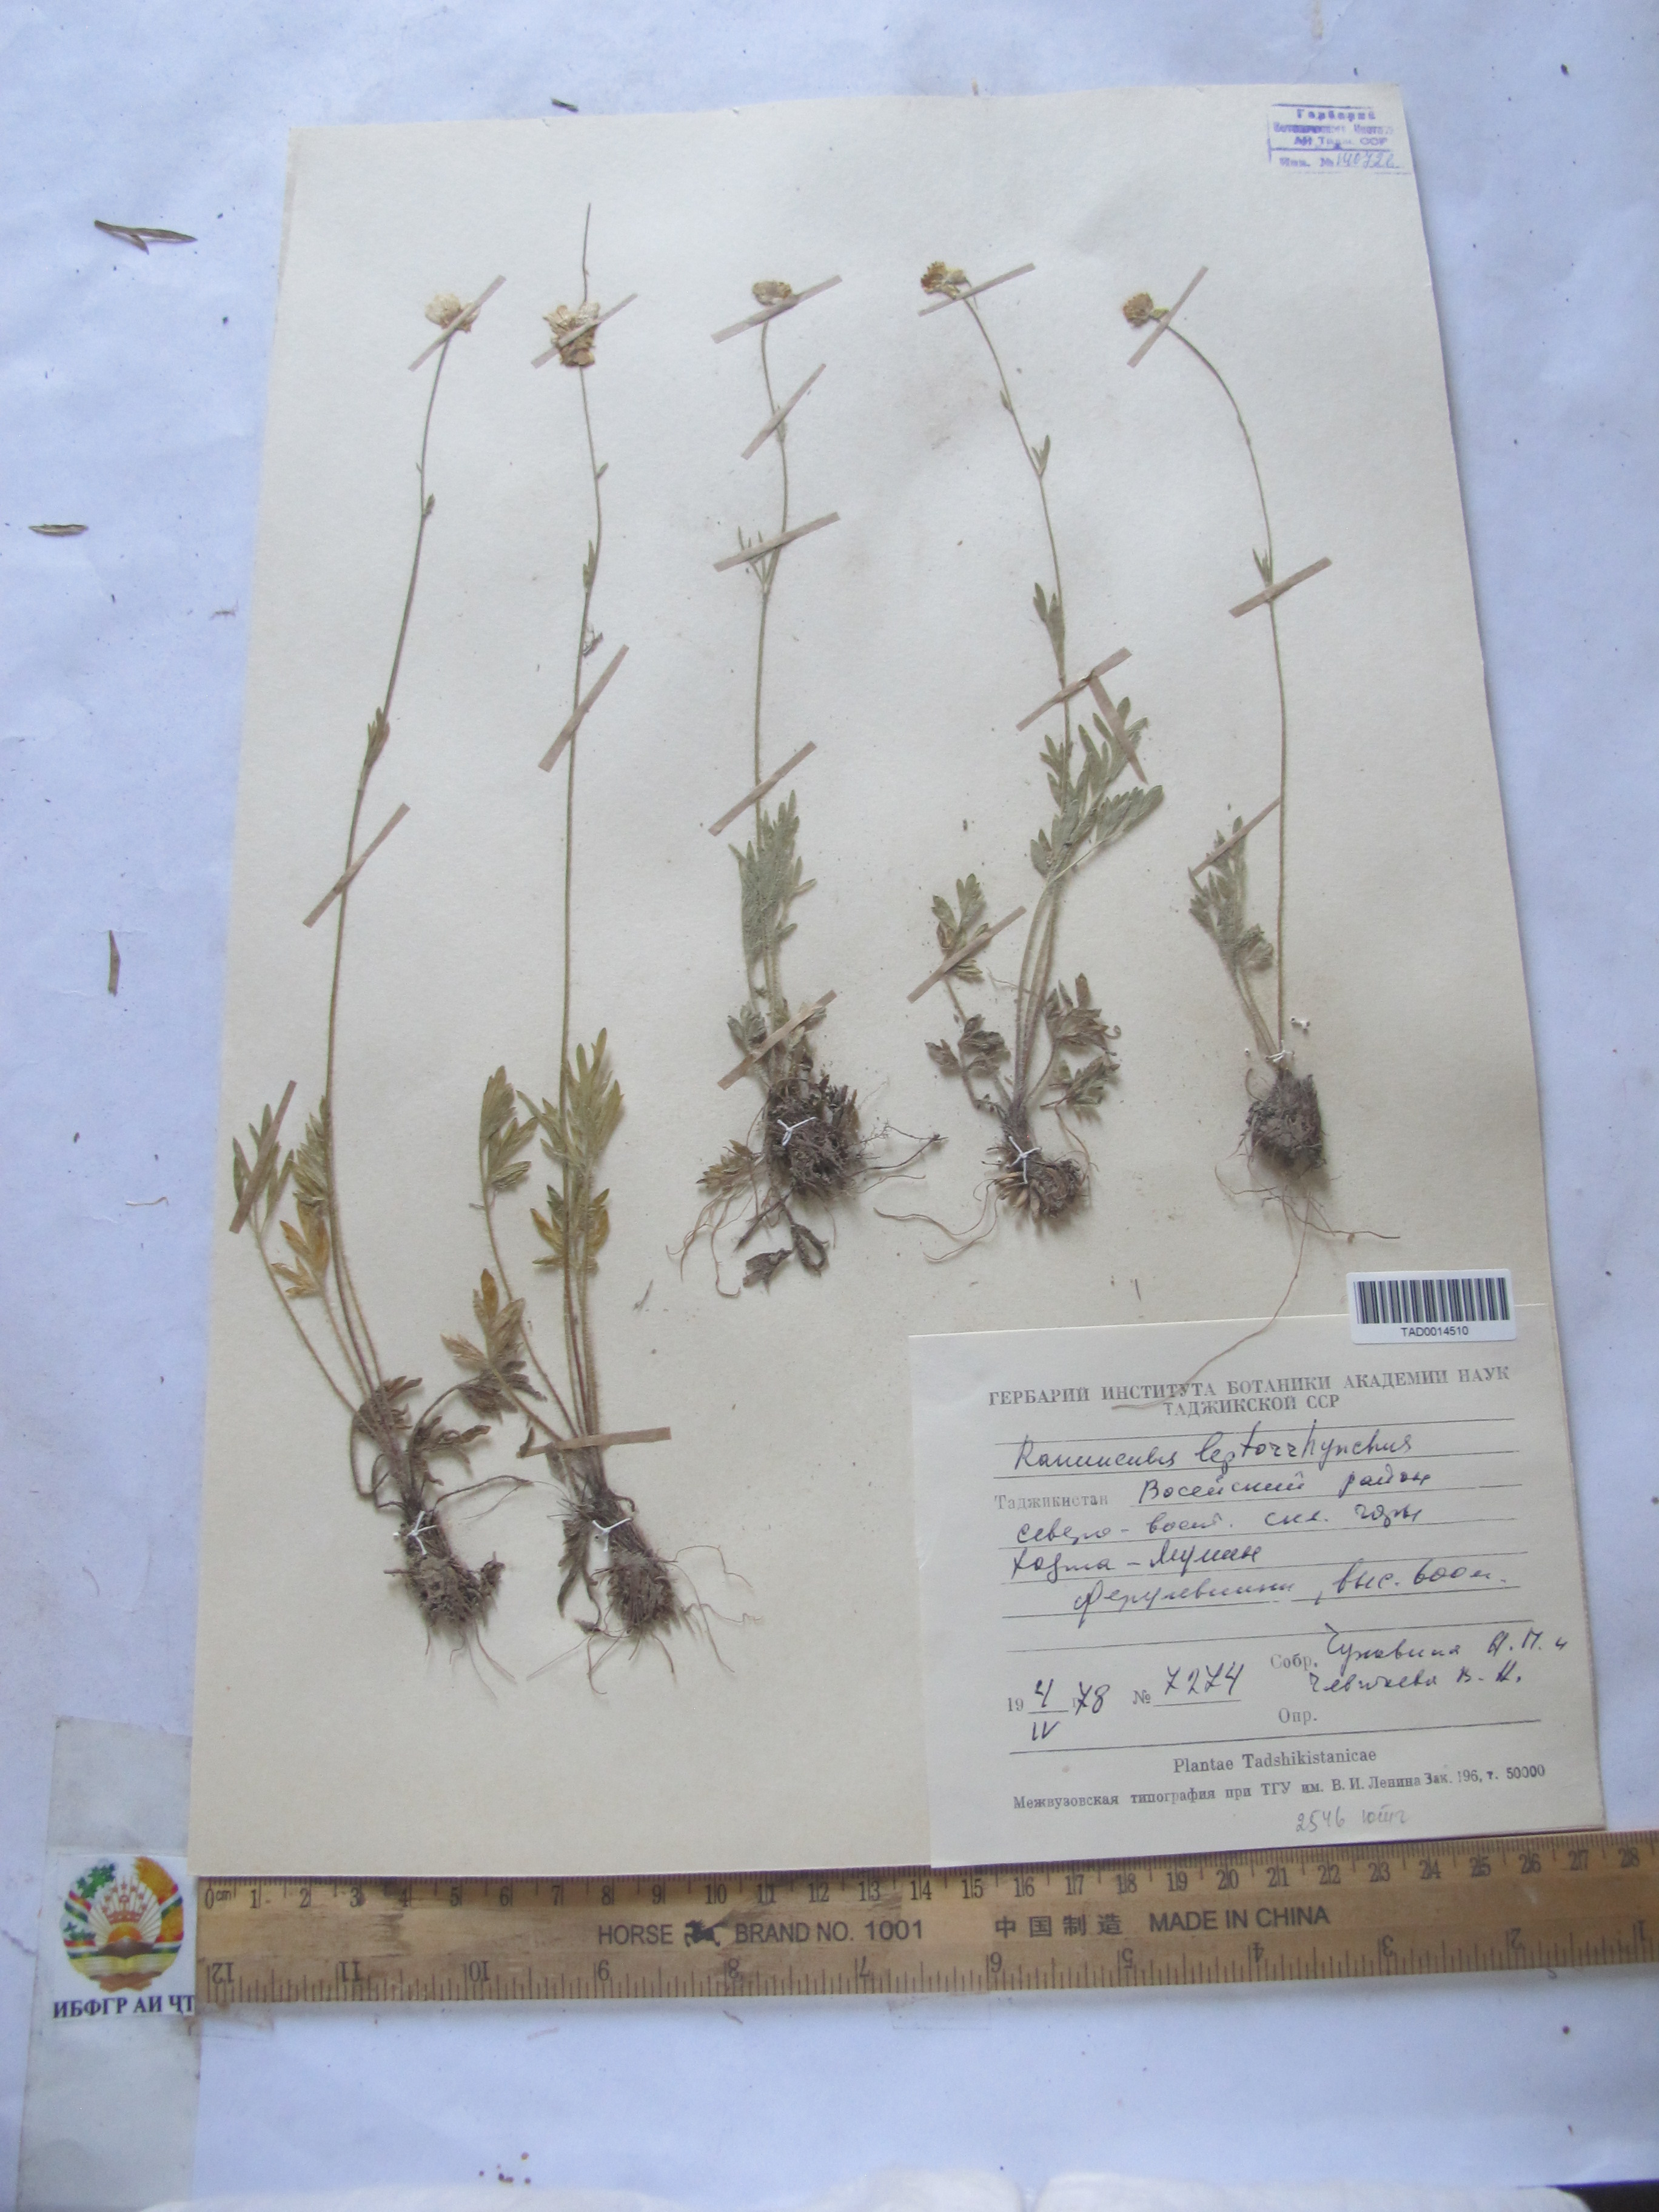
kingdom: Plantae
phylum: Tracheophyta
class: Magnoliopsida
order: Ranunculales
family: Ranunculaceae
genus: Ranunculus
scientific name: Ranunculus leptorrhynchus
